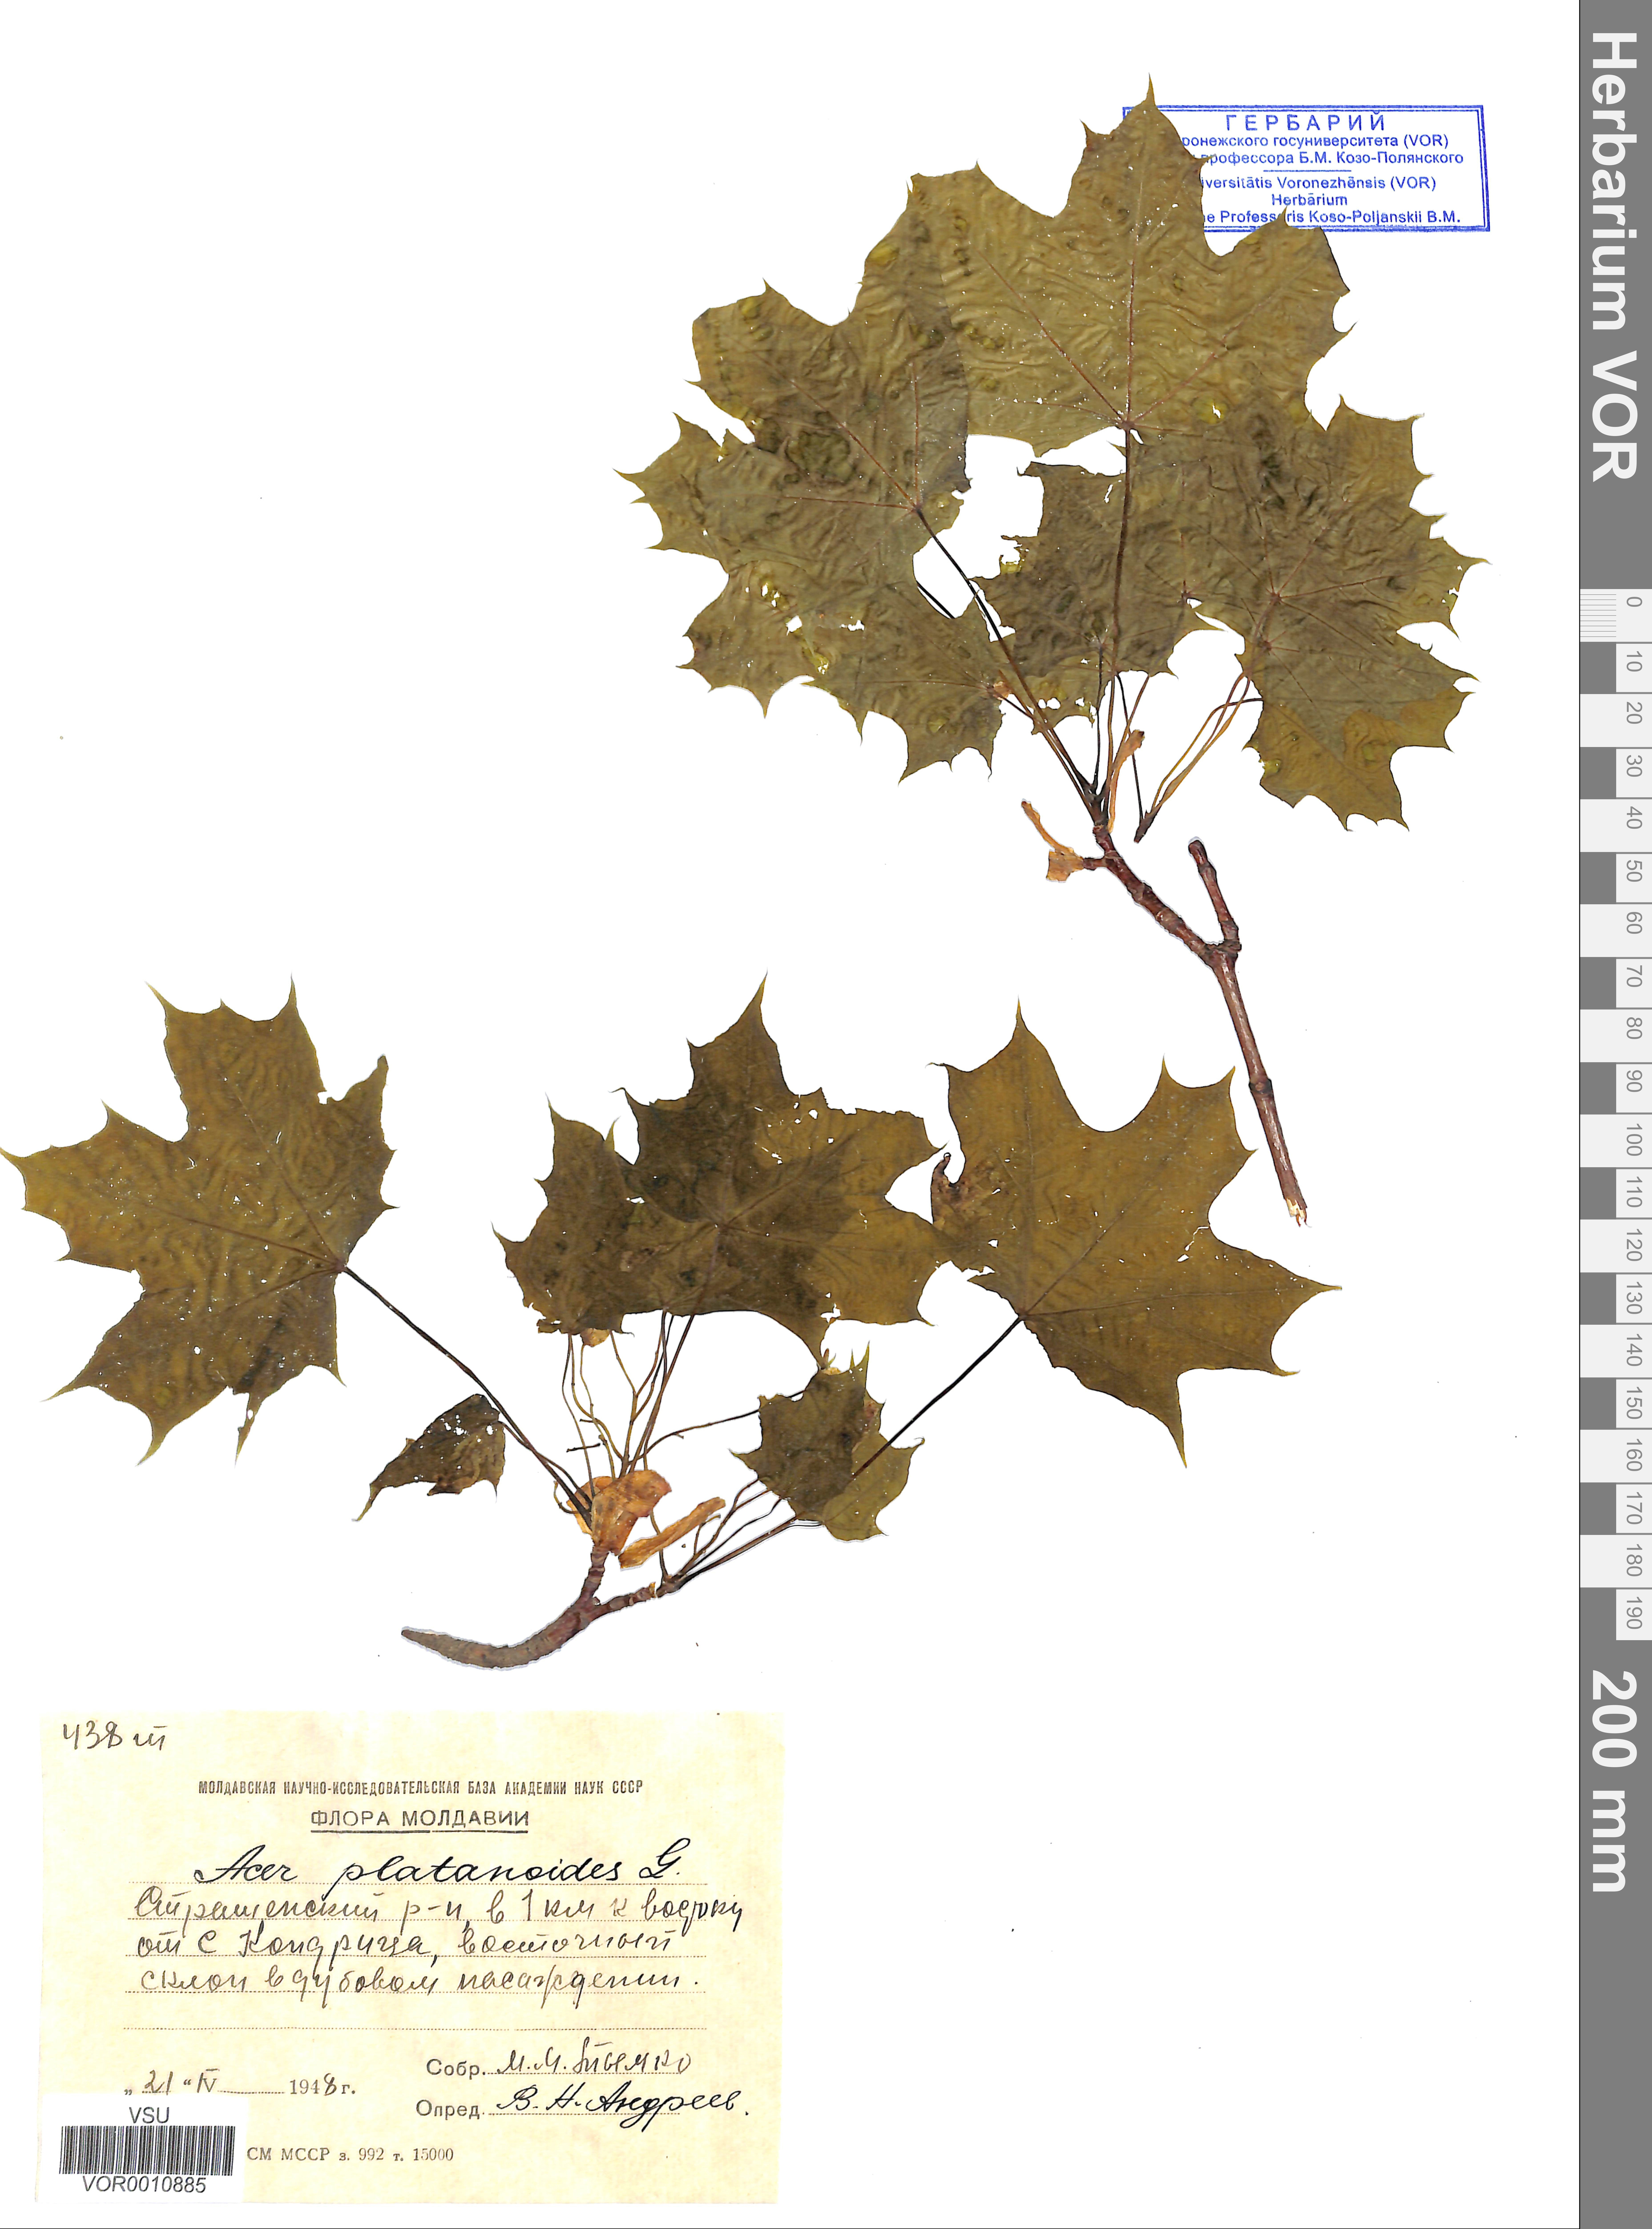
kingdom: Plantae
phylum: Tracheophyta
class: Magnoliopsida
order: Sapindales
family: Sapindaceae
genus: Acer
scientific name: Acer platanoides
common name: Norway maple
